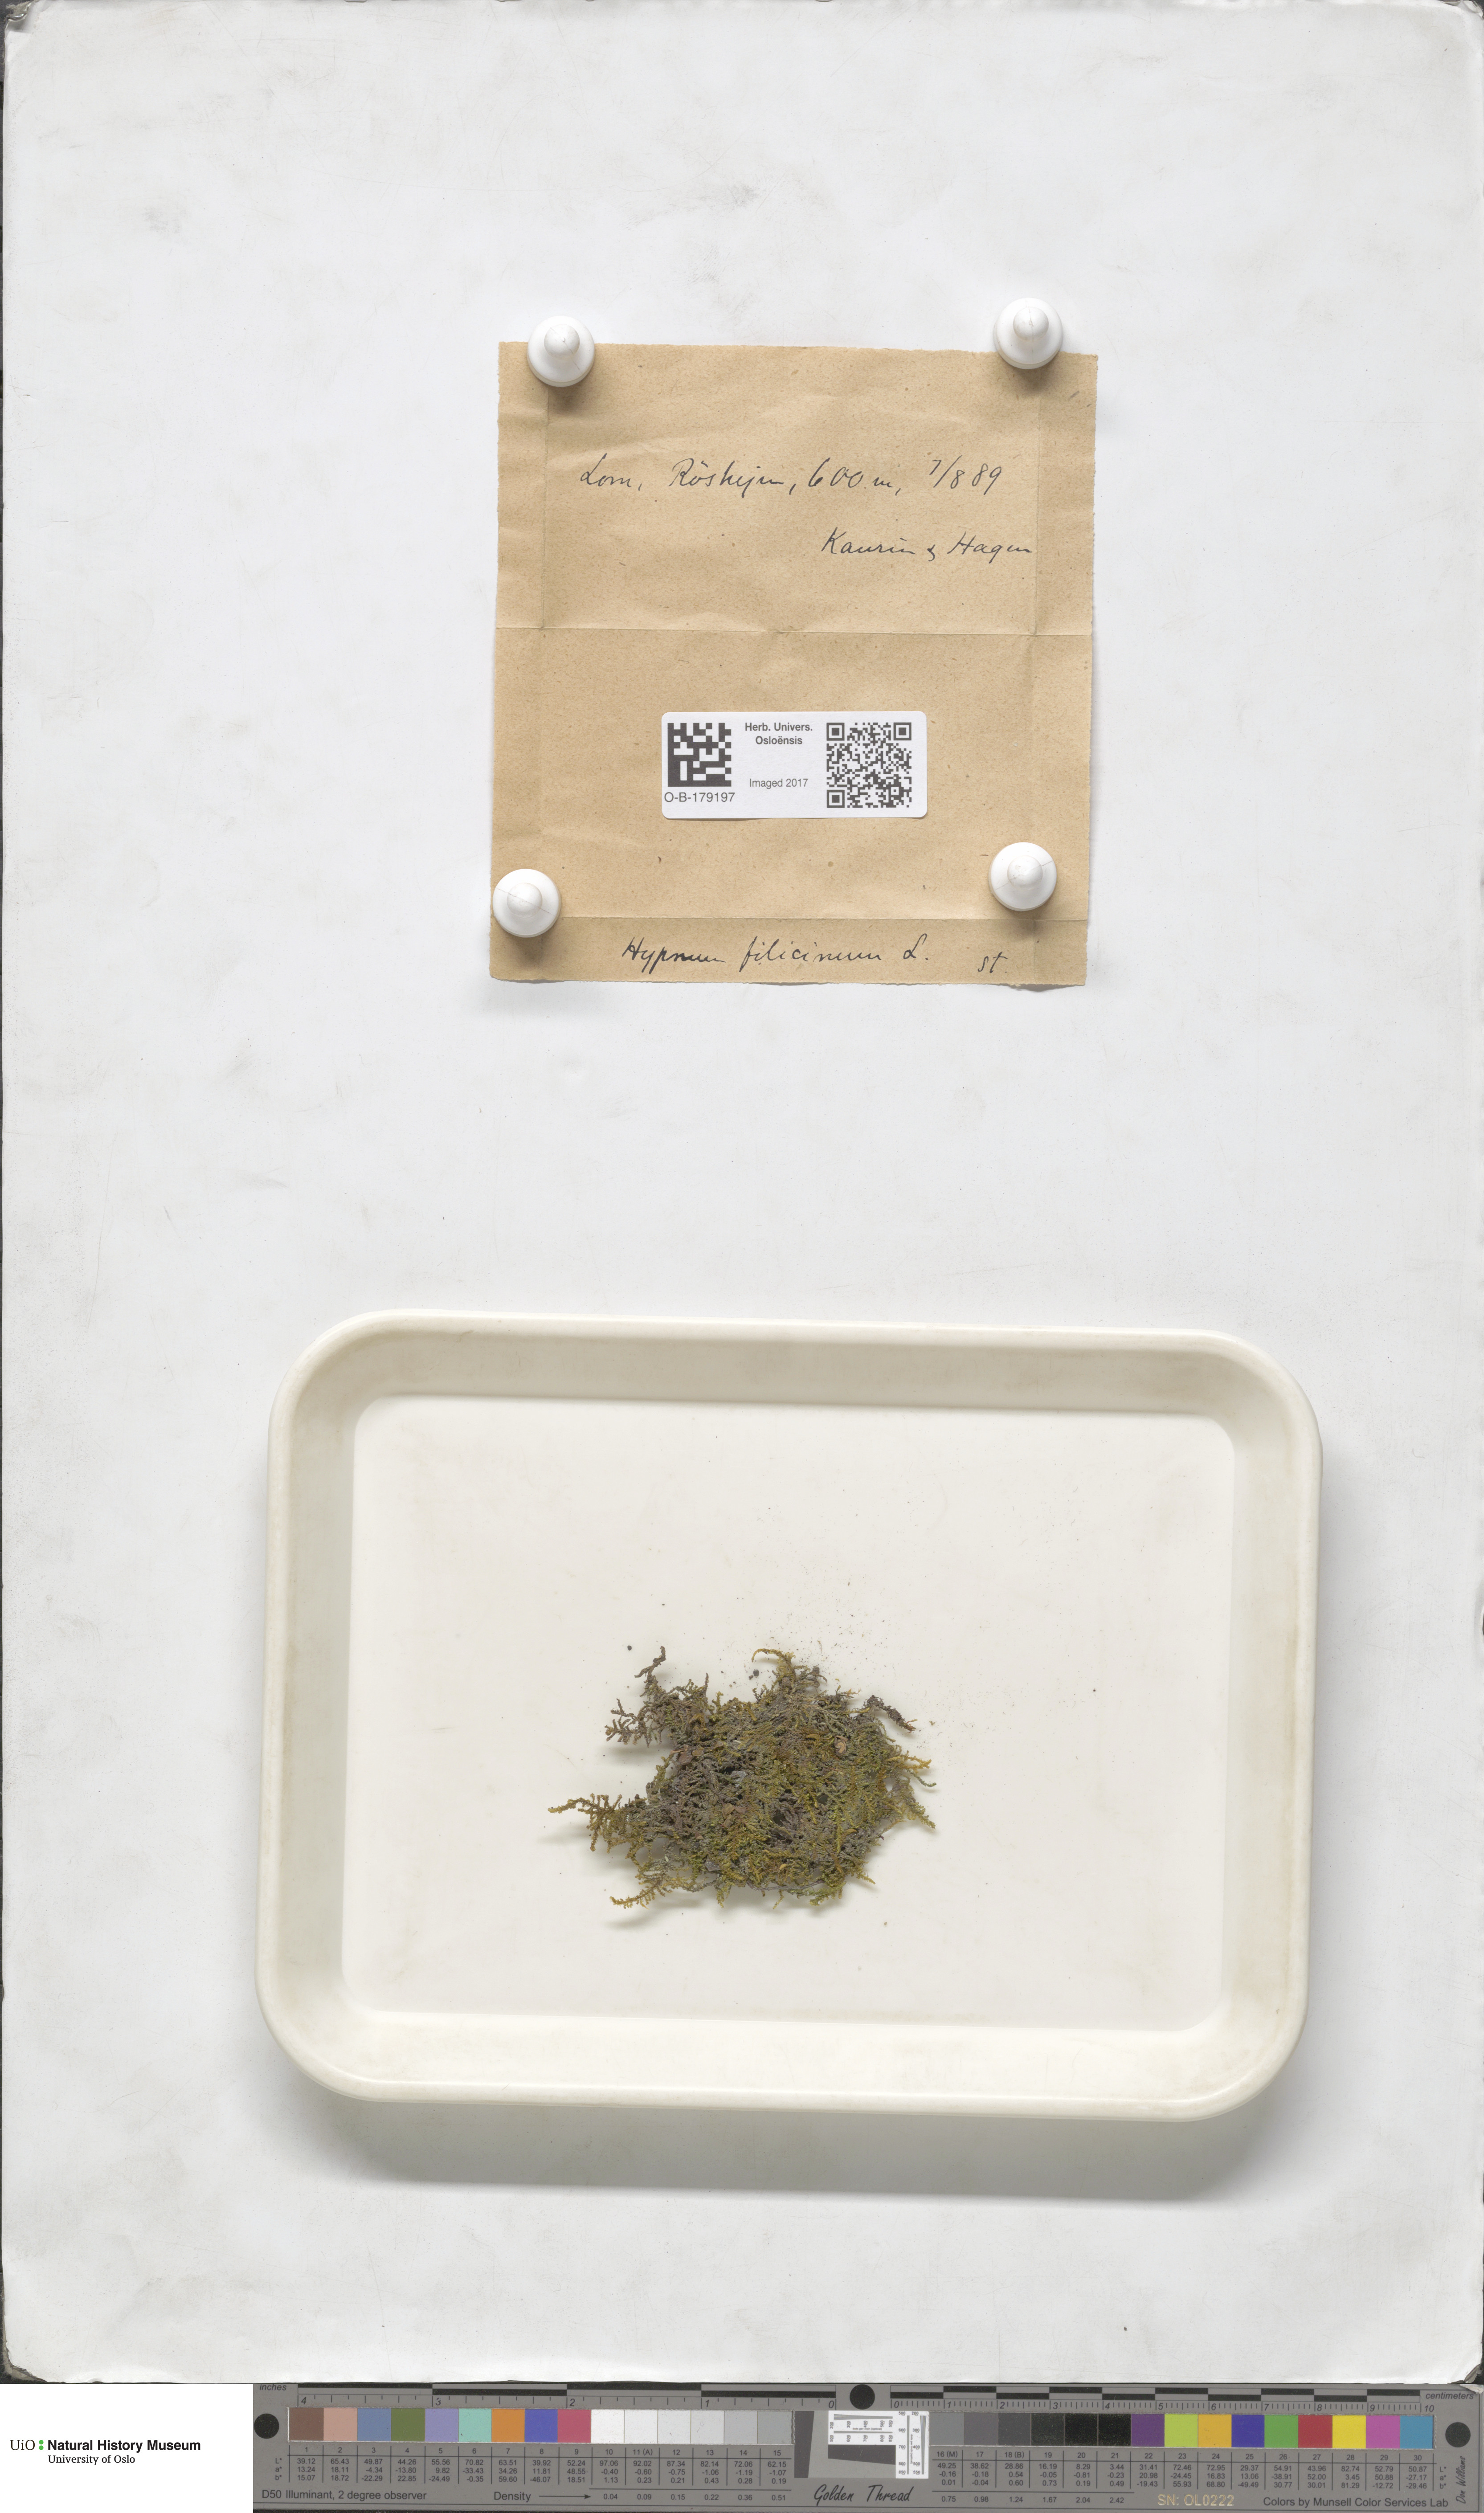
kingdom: Plantae
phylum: Bryophyta
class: Bryopsida
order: Hypnales
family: Amblystegiaceae
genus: Cratoneuron
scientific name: Cratoneuron filicinum
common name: Fern-leaved hook moss
